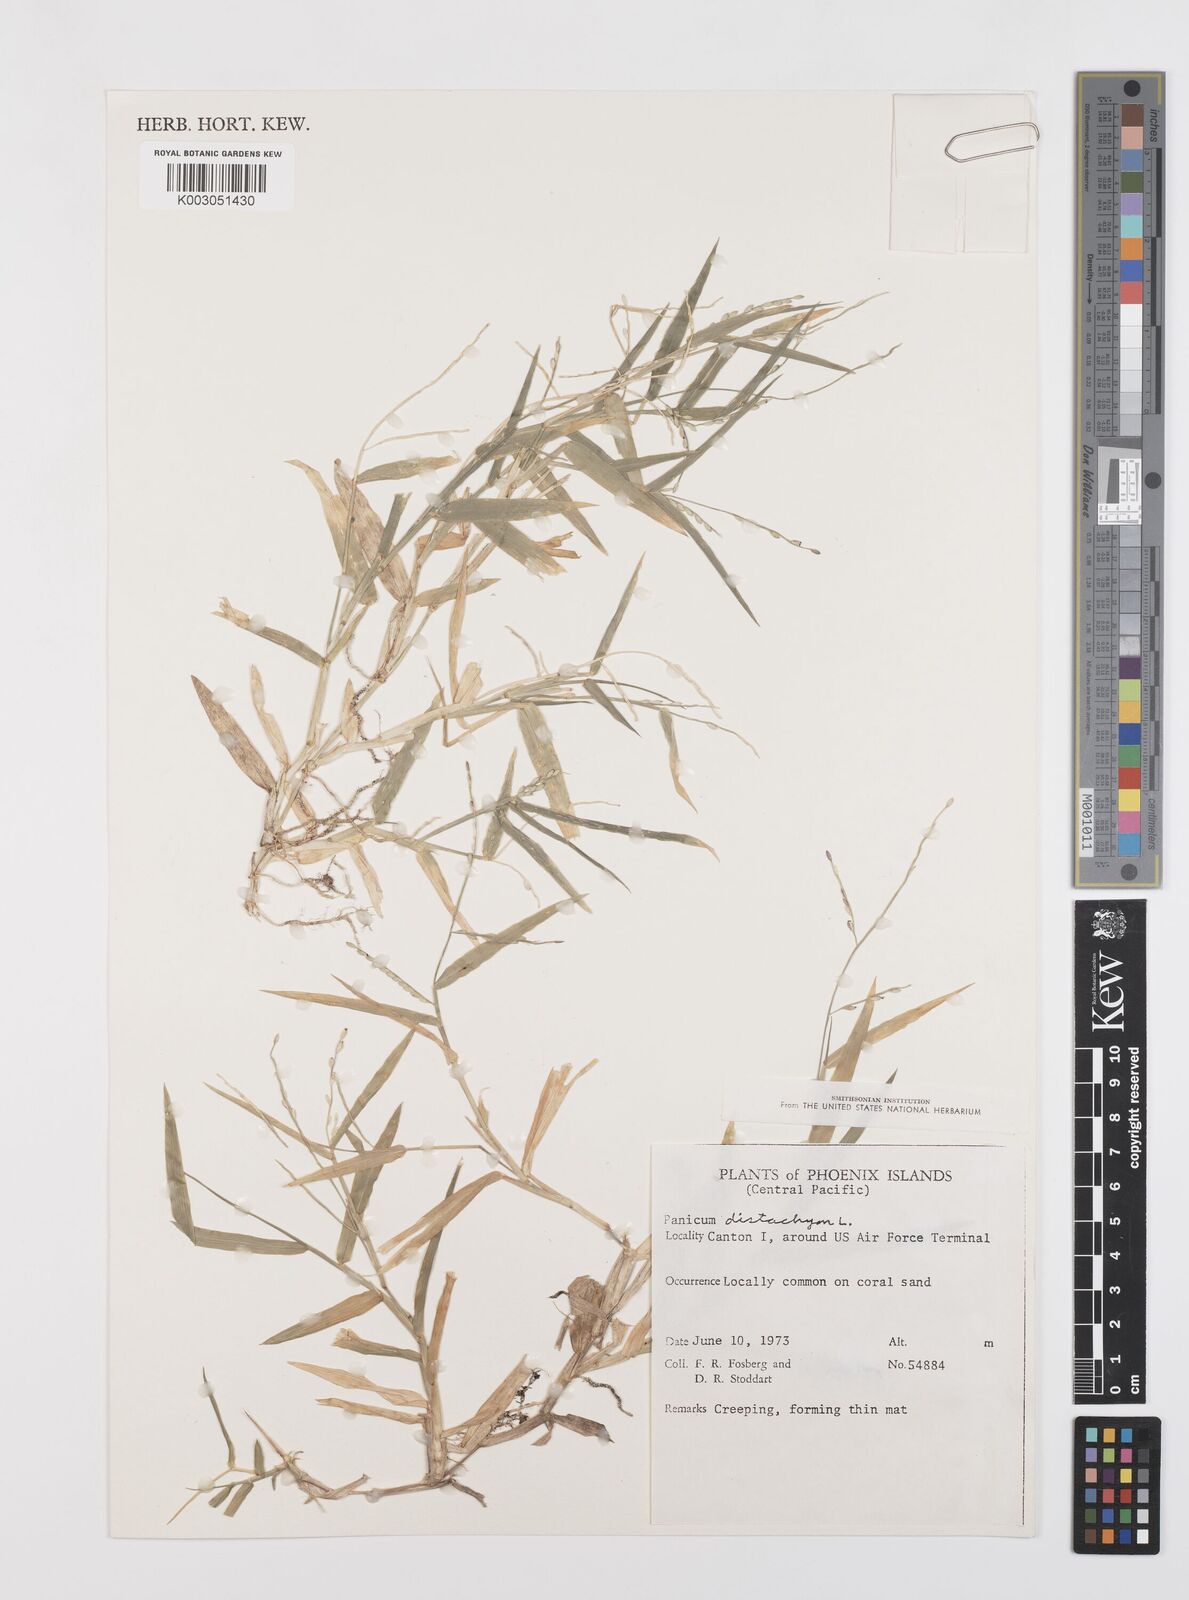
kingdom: Plantae
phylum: Tracheophyta
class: Liliopsida
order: Poales
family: Poaceae
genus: Urochloa
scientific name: Urochloa subquadripara
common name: Armgrass millet
